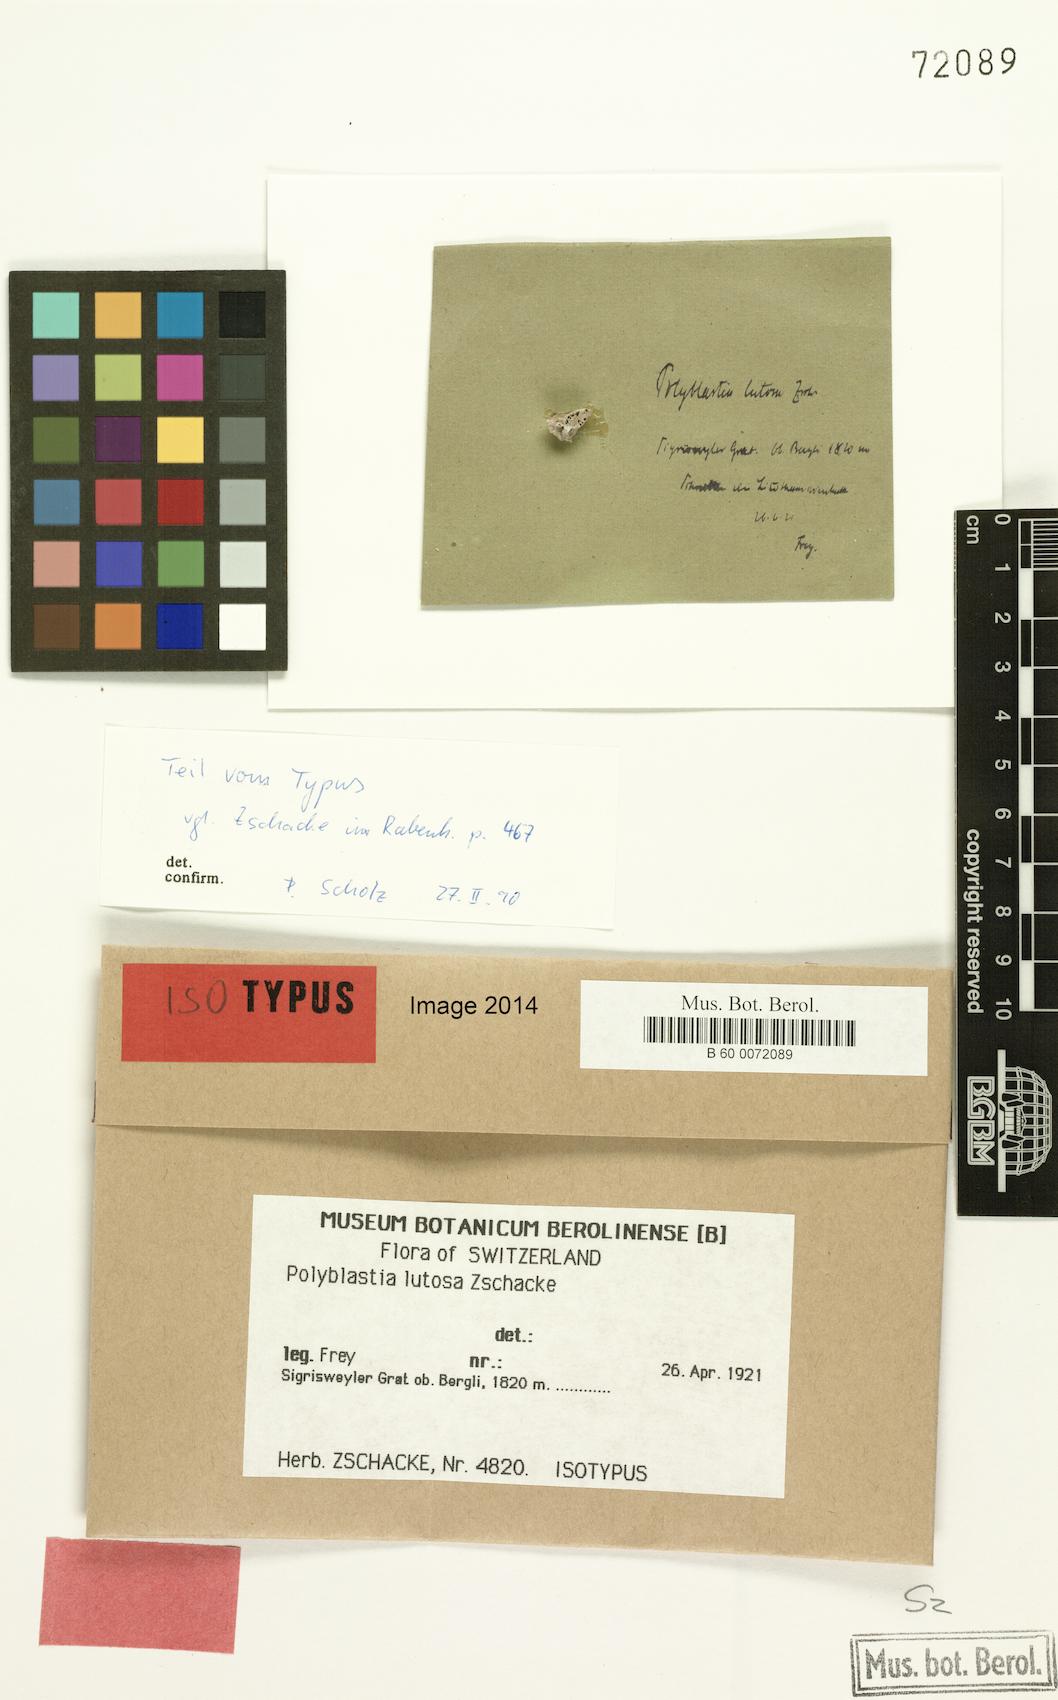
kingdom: Fungi
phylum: Ascomycota
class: Eurotiomycetes
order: Verrucariales
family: Verrucariaceae
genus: Polyblastia
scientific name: Polyblastia cupularis
